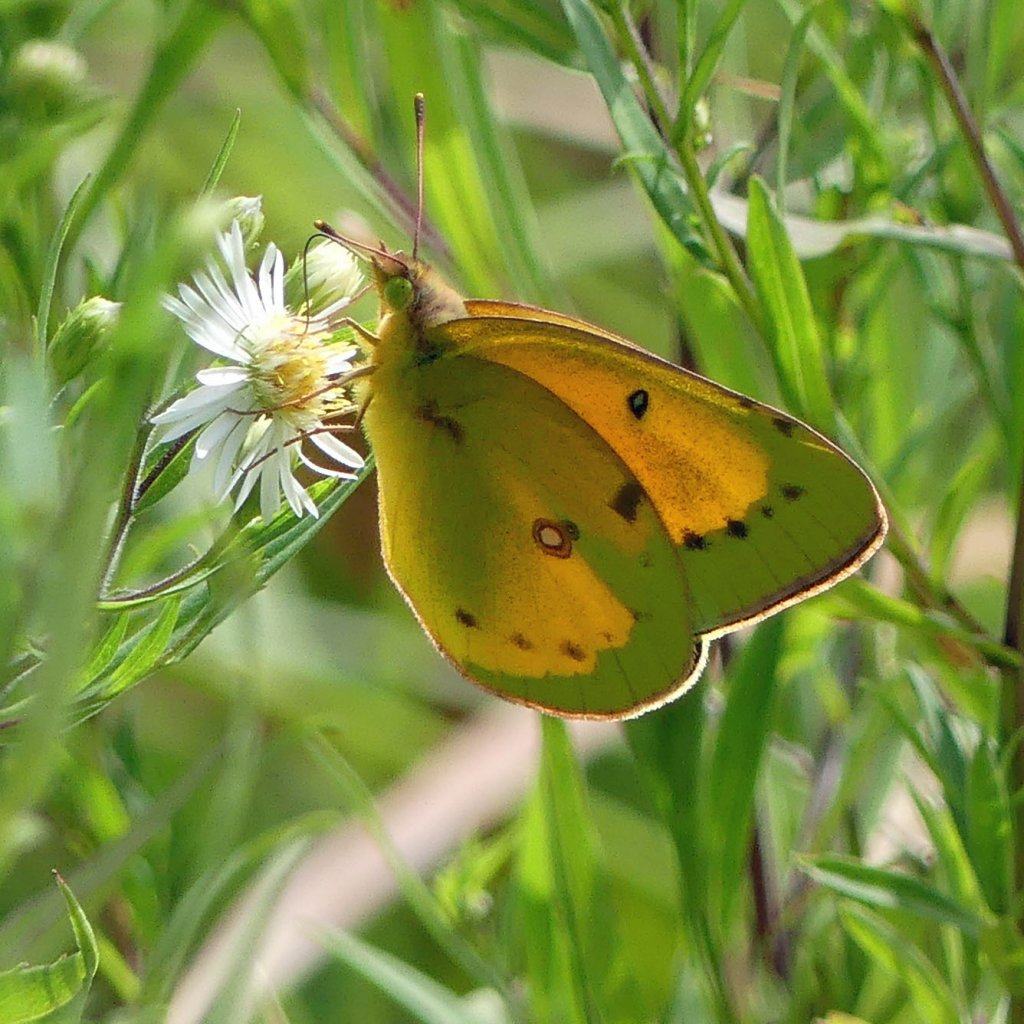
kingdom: Animalia
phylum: Arthropoda
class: Insecta
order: Lepidoptera
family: Pieridae
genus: Colias
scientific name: Colias eurytheme
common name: Orange Sulphur
